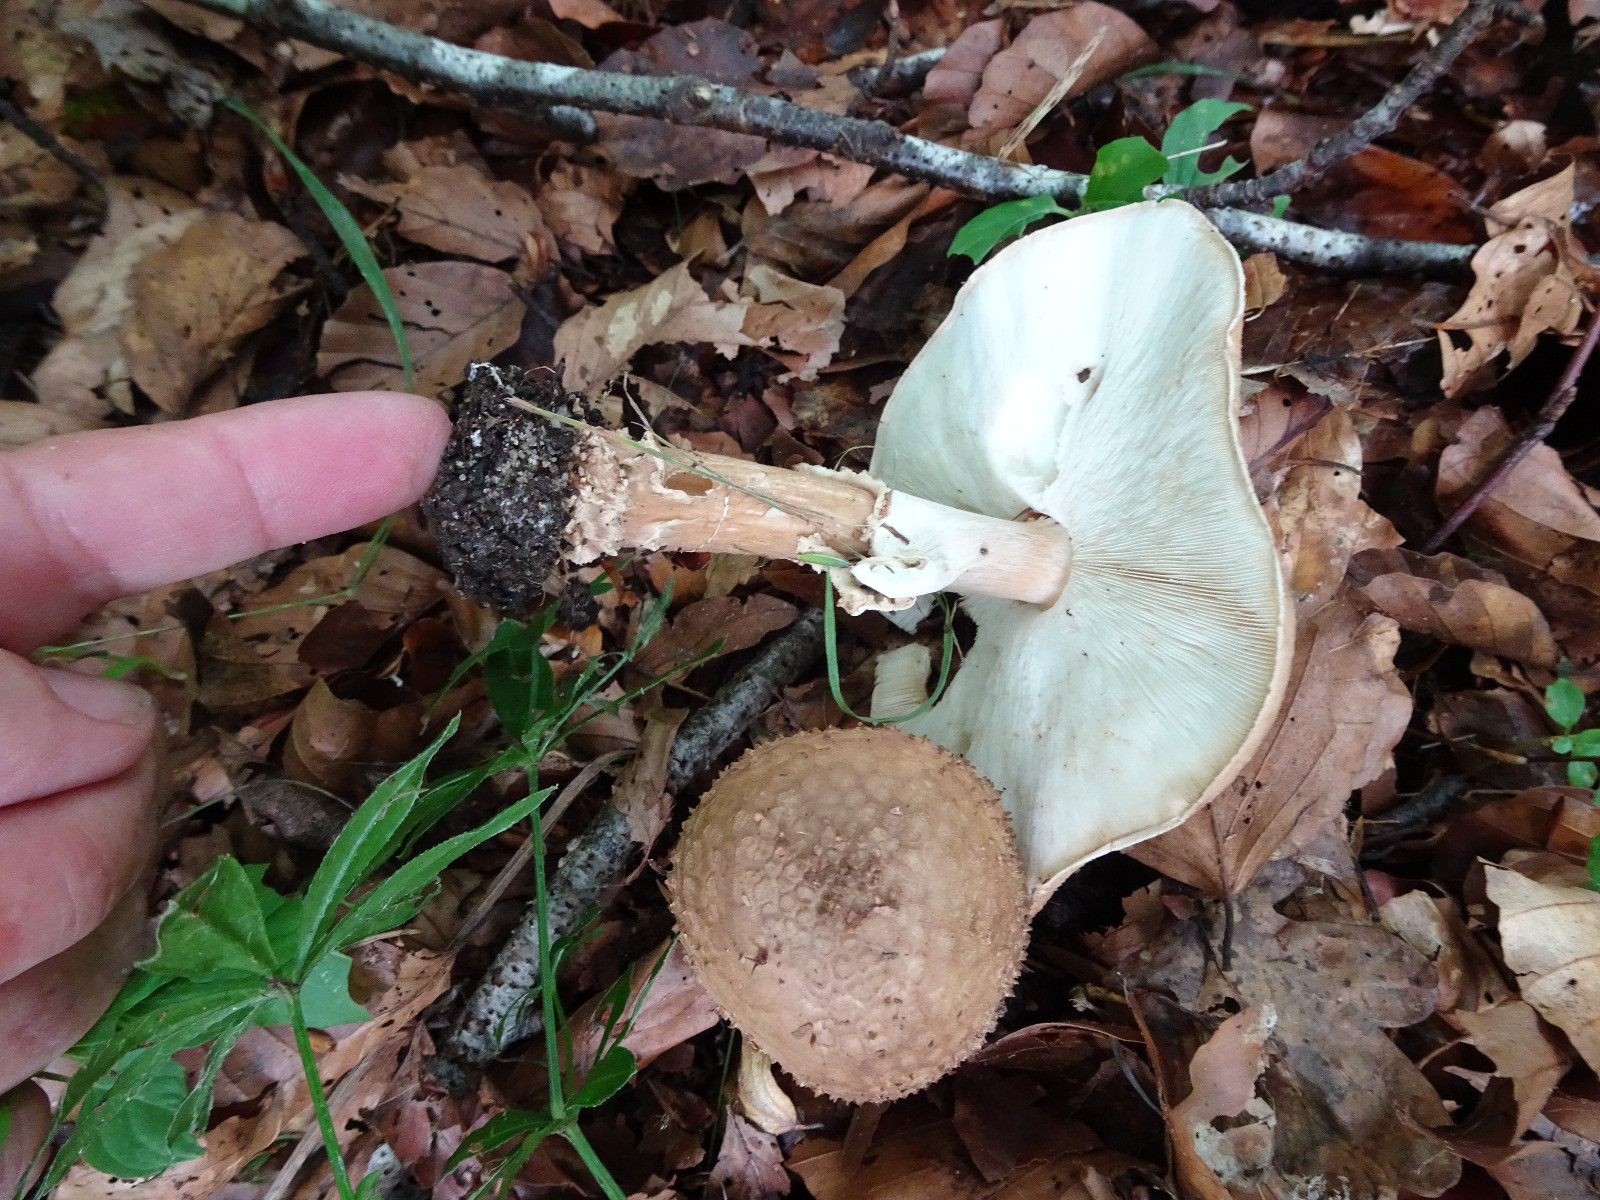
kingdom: Fungi
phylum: Basidiomycota
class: Agaricomycetes
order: Agaricales
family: Agaricaceae
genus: Echinoderma
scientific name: Echinoderma asperum
